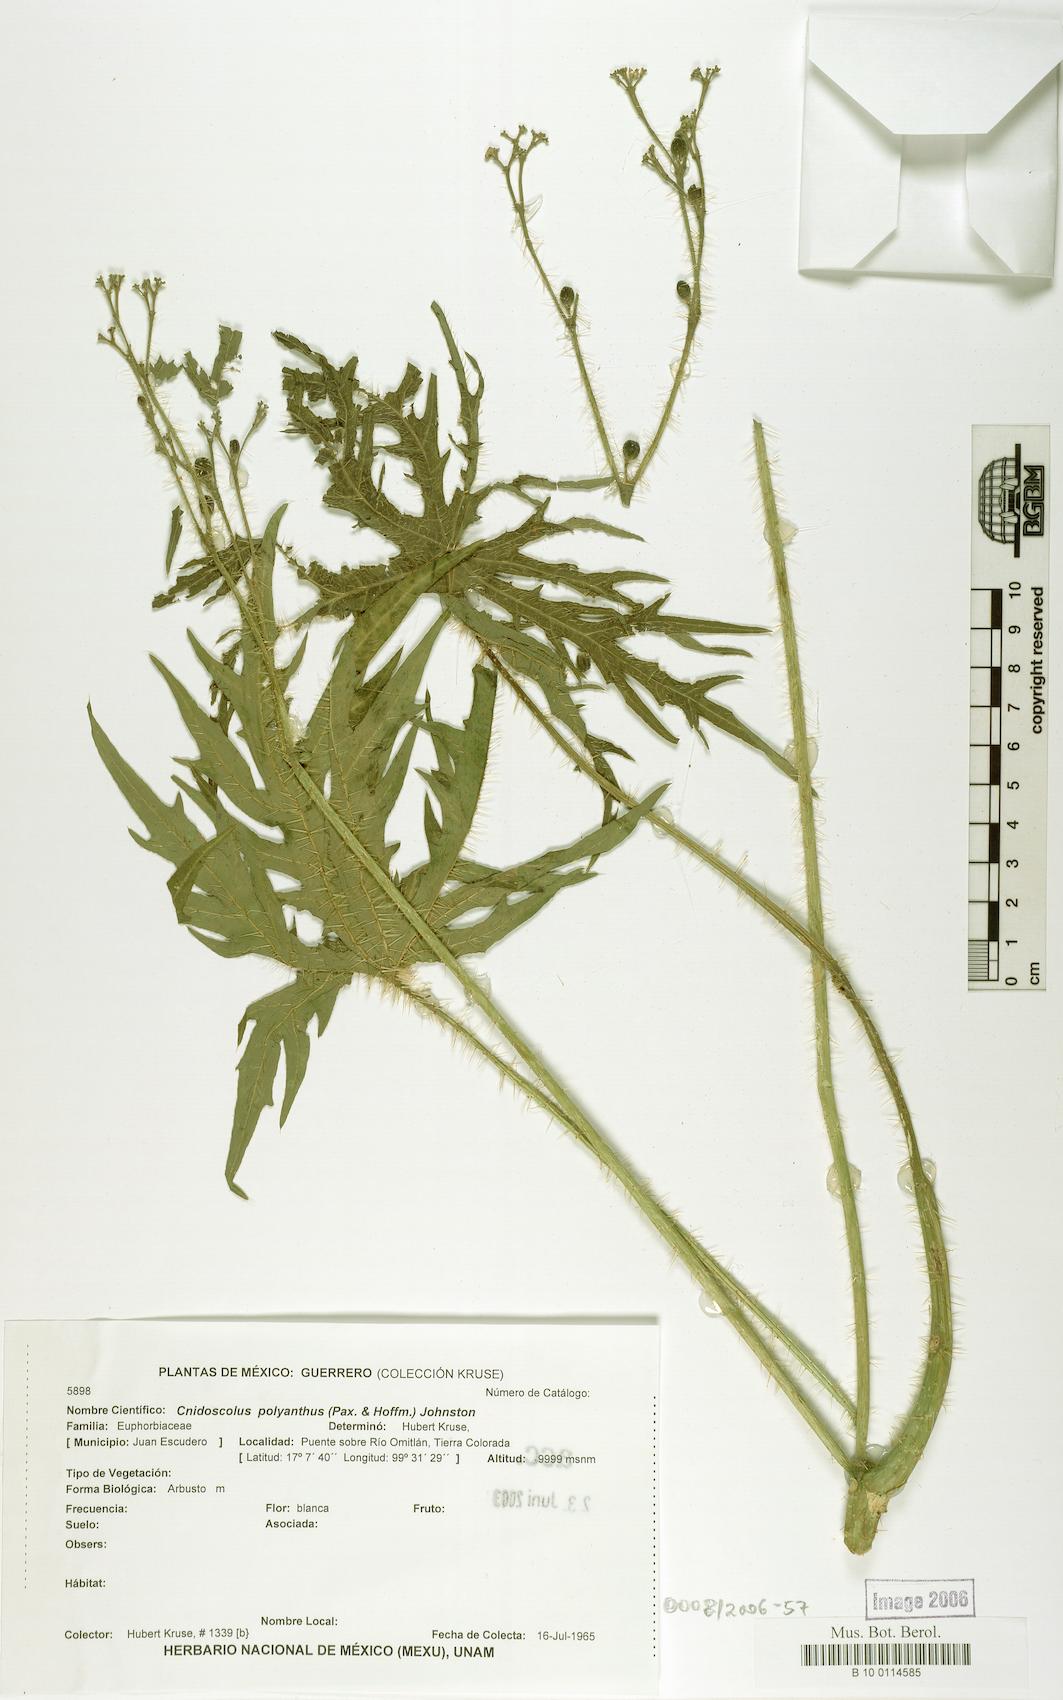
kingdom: Plantae
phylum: Tracheophyta
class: Magnoliopsida
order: Malpighiales
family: Euphorbiaceae
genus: Cnidoscolus
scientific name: Cnidoscolus aconitifolius
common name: Cabbage-star
